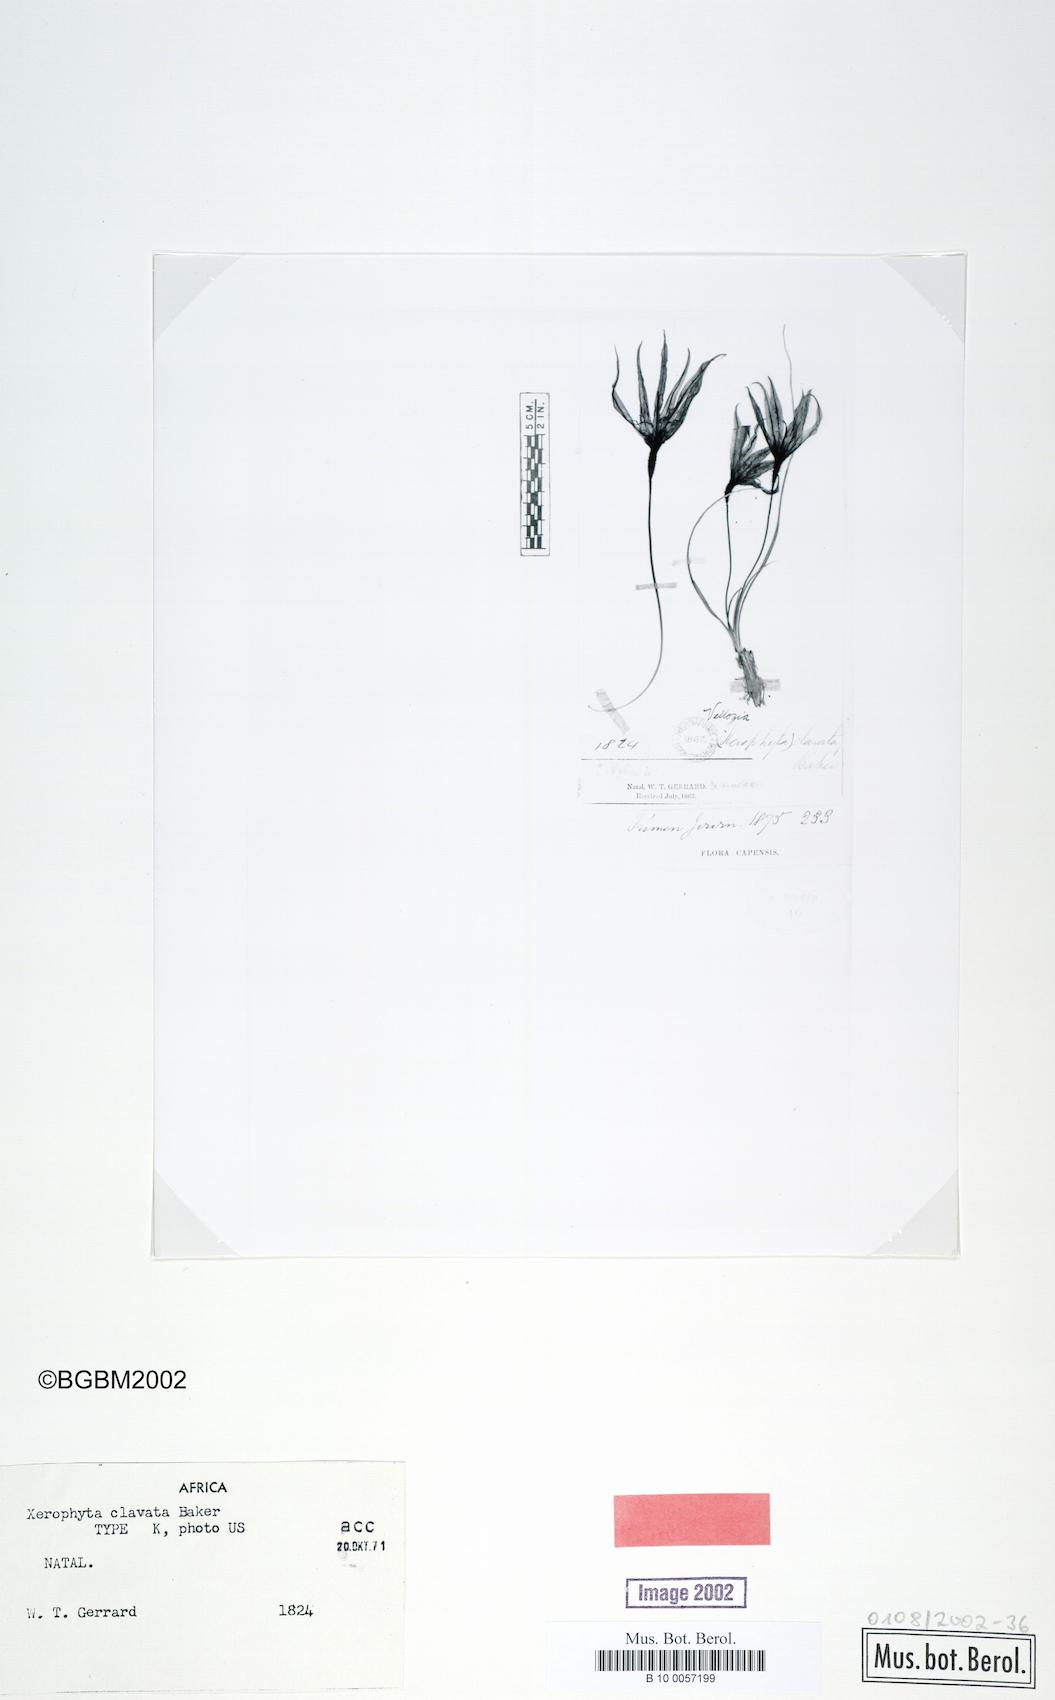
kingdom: Plantae
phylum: Tracheophyta
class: Liliopsida
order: Pandanales
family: Velloziaceae
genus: Xerophyta
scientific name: Xerophyta retinervis
